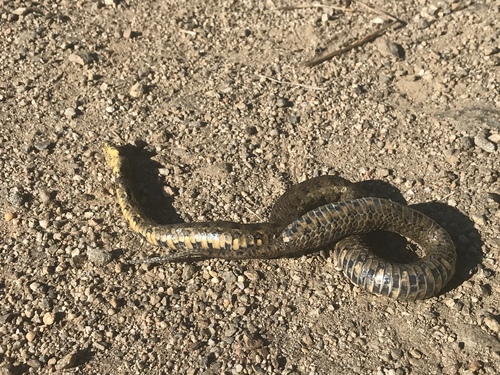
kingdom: Animalia
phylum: Chordata
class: Squamata
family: Colubridae
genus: Natrix
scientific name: Natrix maura
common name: Viperine water snake
